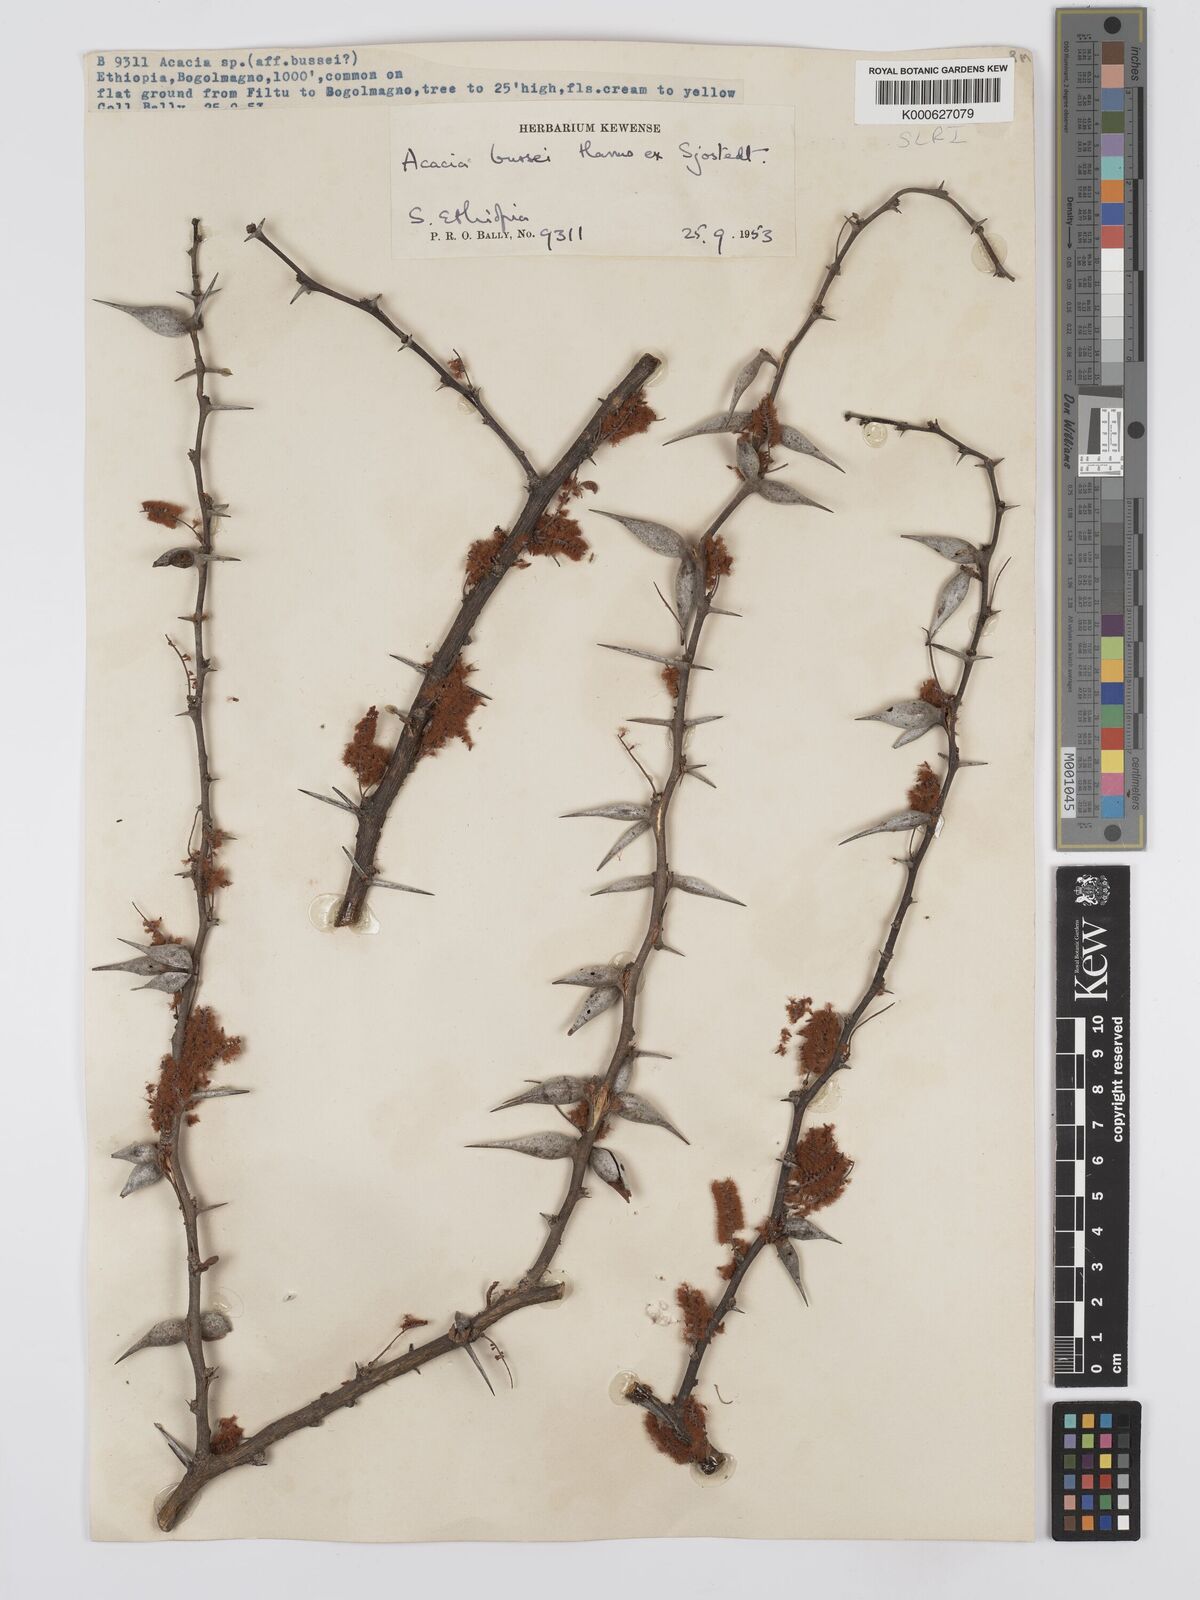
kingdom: Plantae
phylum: Tracheophyta
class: Magnoliopsida
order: Fabales
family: Fabaceae
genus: Vachellia
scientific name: Vachellia bussei
